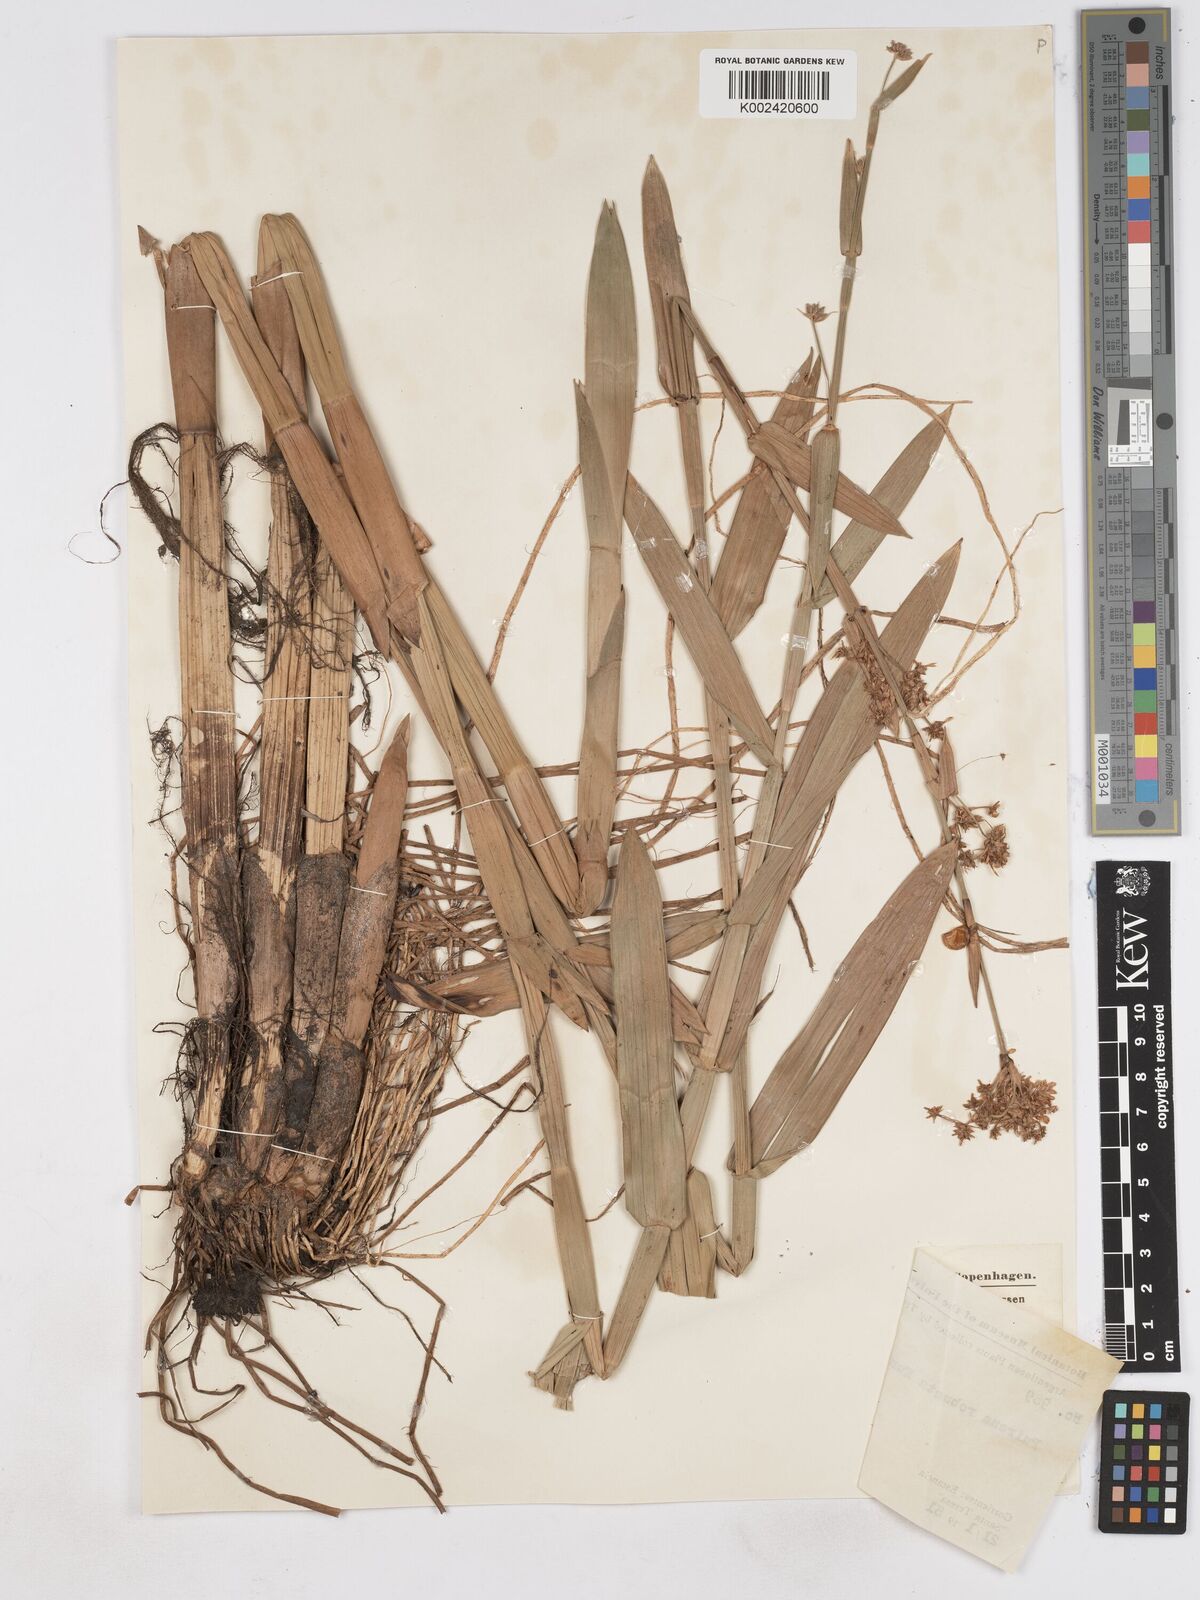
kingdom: Plantae
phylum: Tracheophyta
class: Liliopsida
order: Poales
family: Cyperaceae
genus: Fuirena
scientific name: Fuirena robusta
